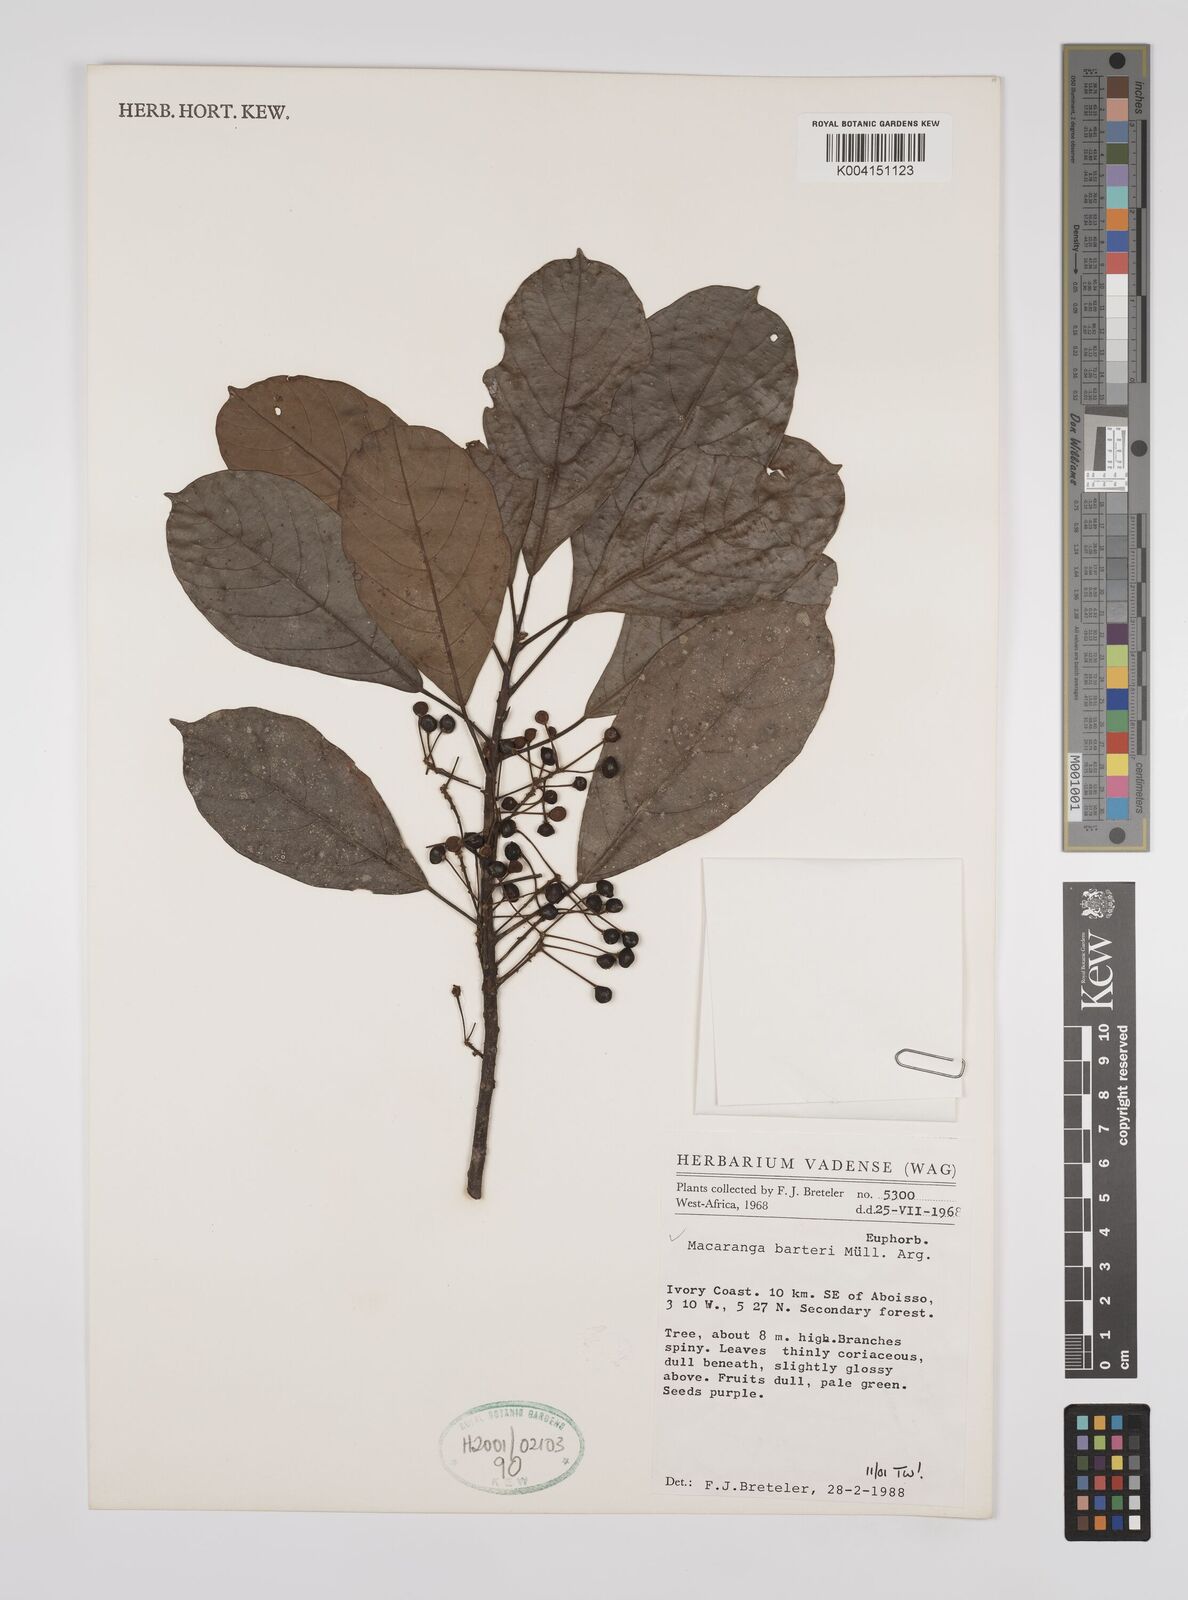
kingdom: Plantae
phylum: Tracheophyta
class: Magnoliopsida
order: Malpighiales
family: Euphorbiaceae
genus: Macaranga
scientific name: Macaranga barteri
